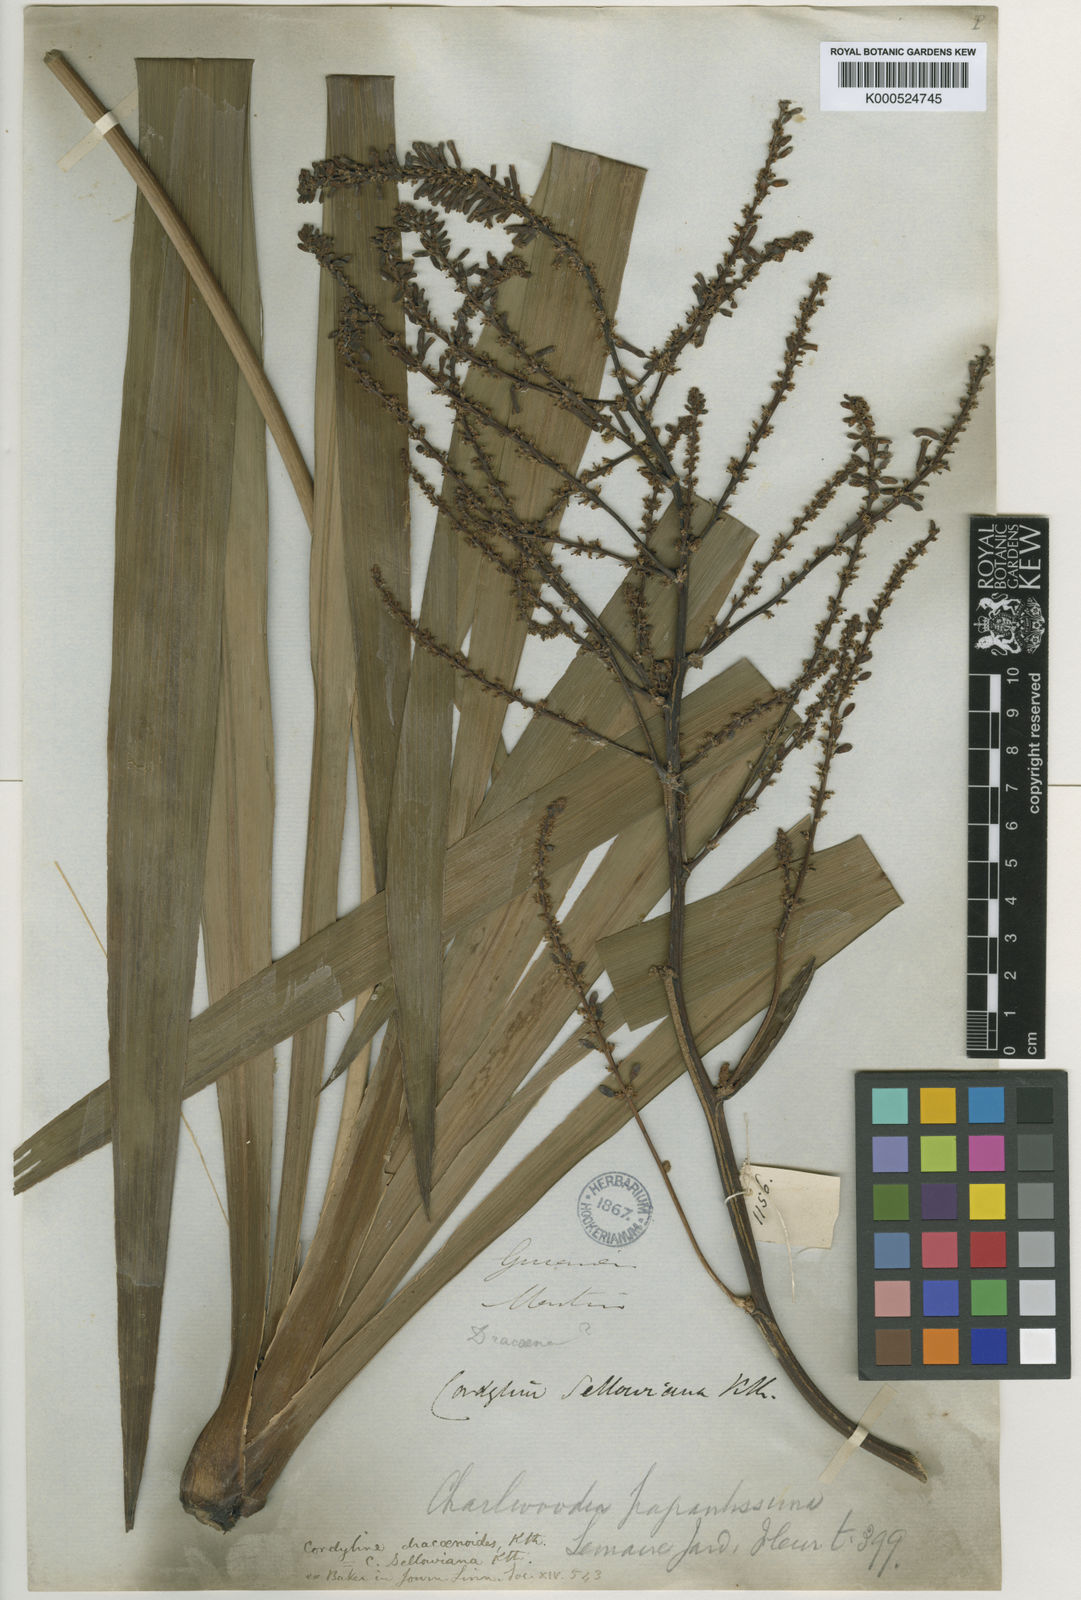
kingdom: Plantae
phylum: Tracheophyta
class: Liliopsida
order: Asparagales
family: Asparagaceae
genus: Cordyline
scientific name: Cordyline sellowiana
